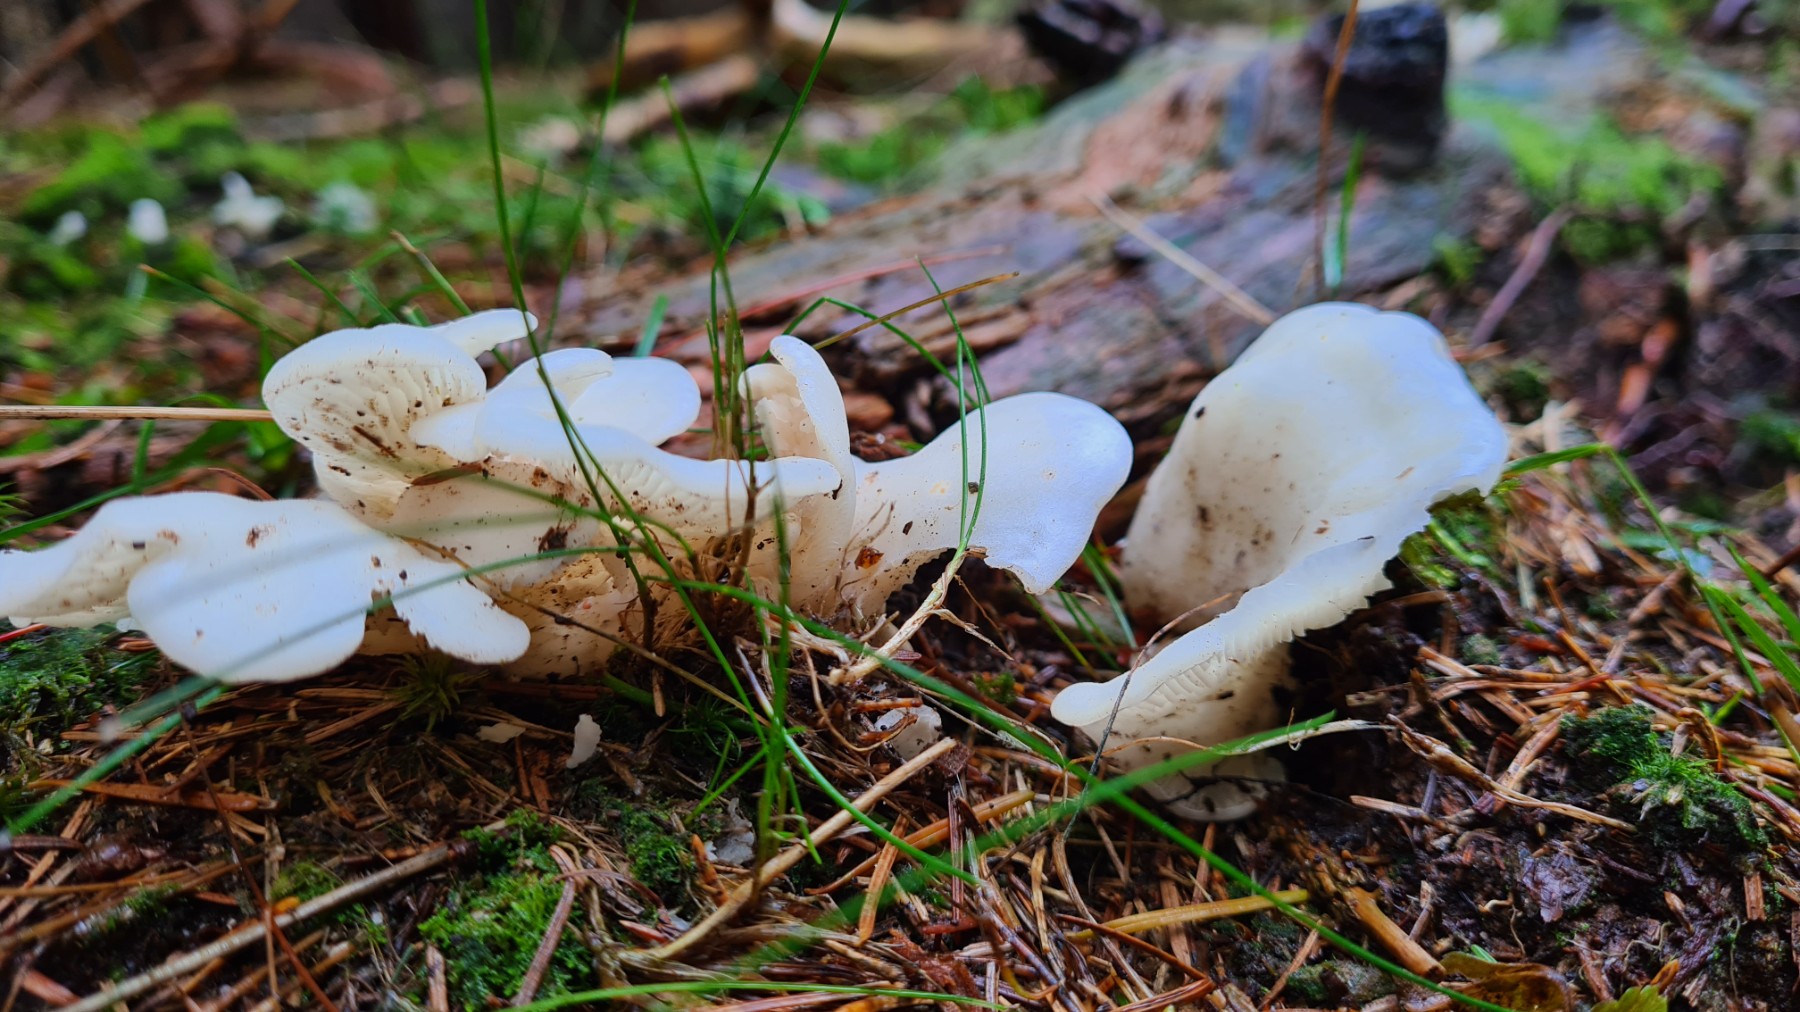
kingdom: Fungi
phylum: Basidiomycota
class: Agaricomycetes
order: Agaricales
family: Marasmiaceae
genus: Pleurocybella
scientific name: Pleurocybella porrigens
